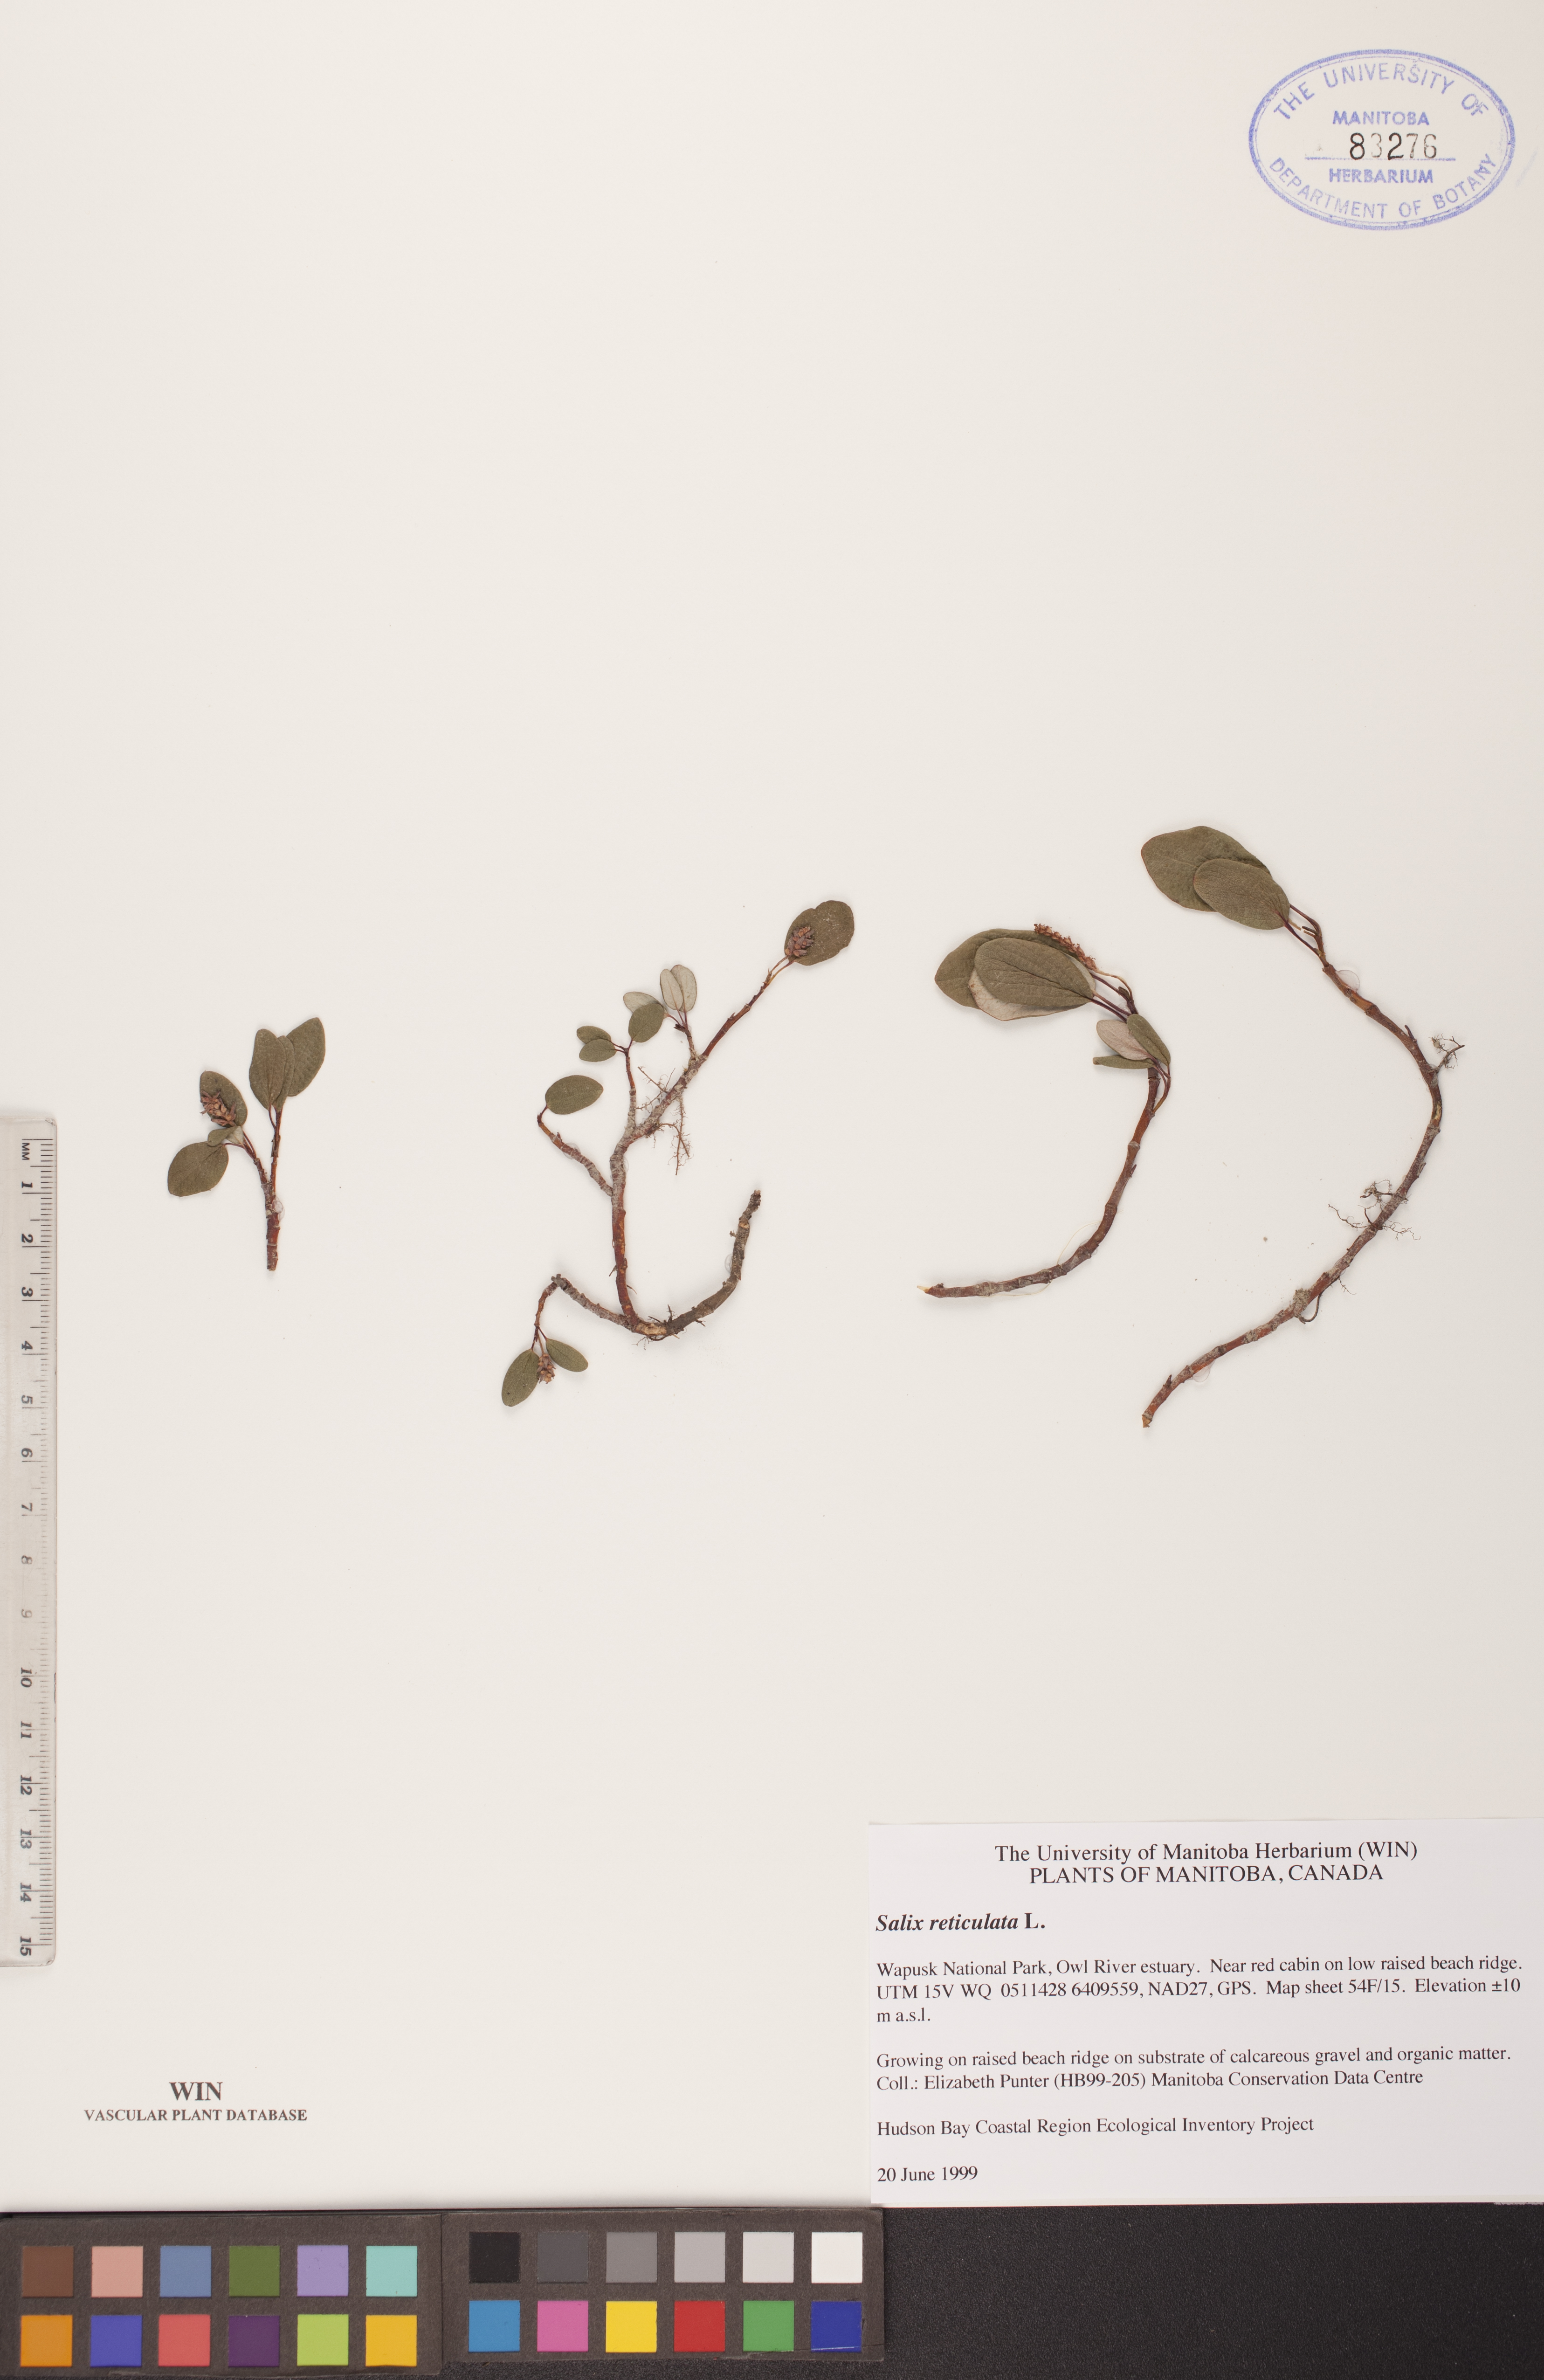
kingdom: Plantae
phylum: Tracheophyta
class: Magnoliopsida
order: Malpighiales
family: Salicaceae
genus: Salix
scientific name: Salix reticulata
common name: Net-leaved willow
